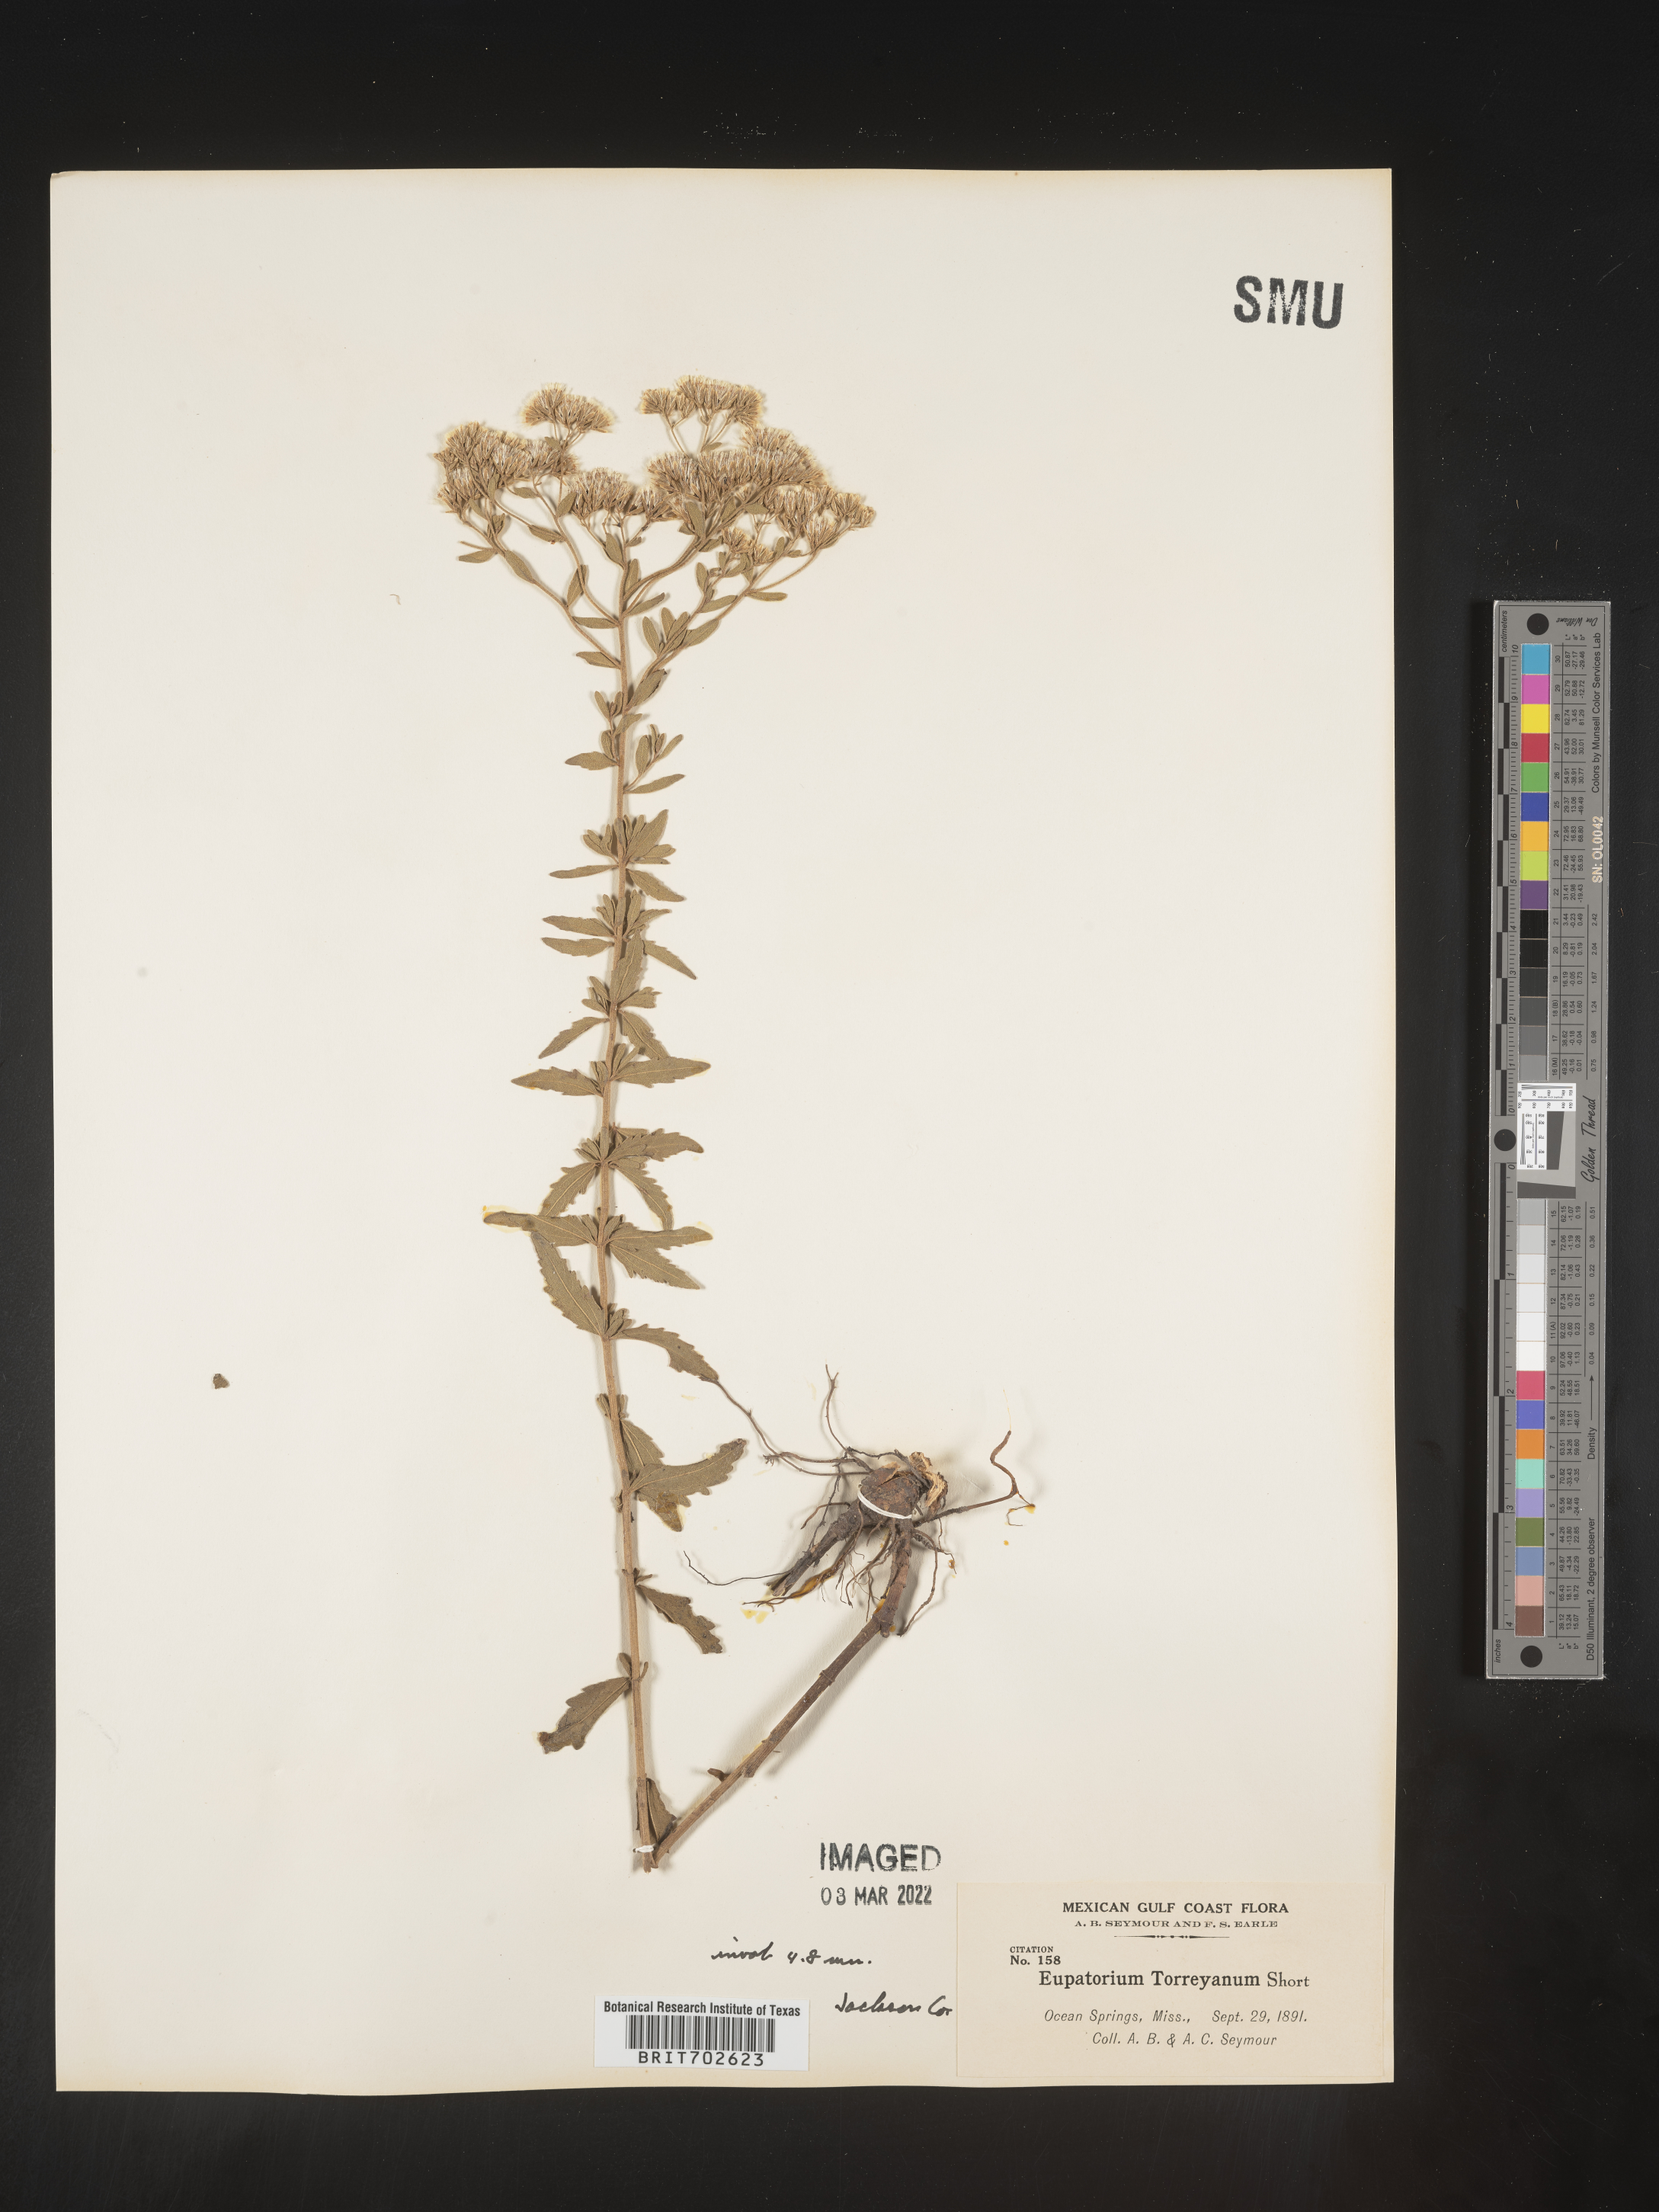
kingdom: Plantae
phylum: Tracheophyta
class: Magnoliopsida
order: Asterales
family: Asteraceae
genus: Eupatorium
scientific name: Eupatorium torreyanum
